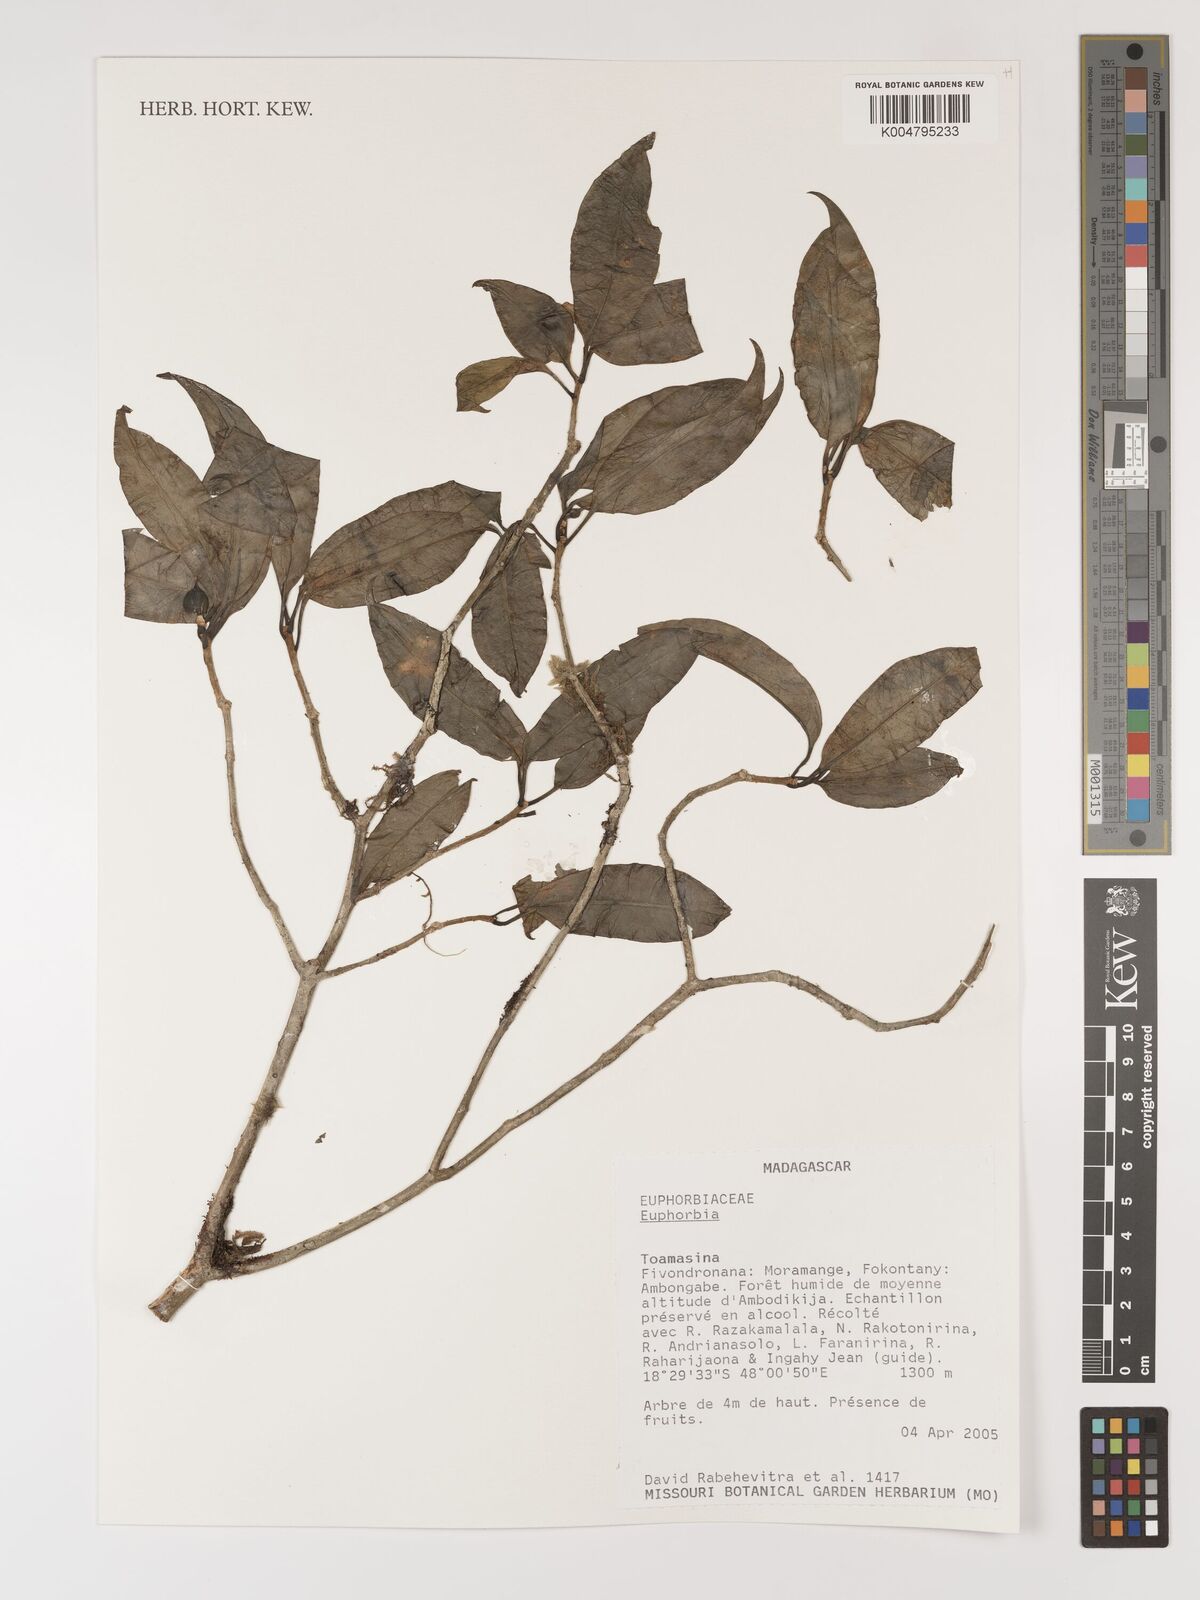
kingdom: Plantae
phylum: Tracheophyta
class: Magnoliopsida
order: Malpighiales
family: Euphorbiaceae
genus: Euphorbia
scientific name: Euphorbia
